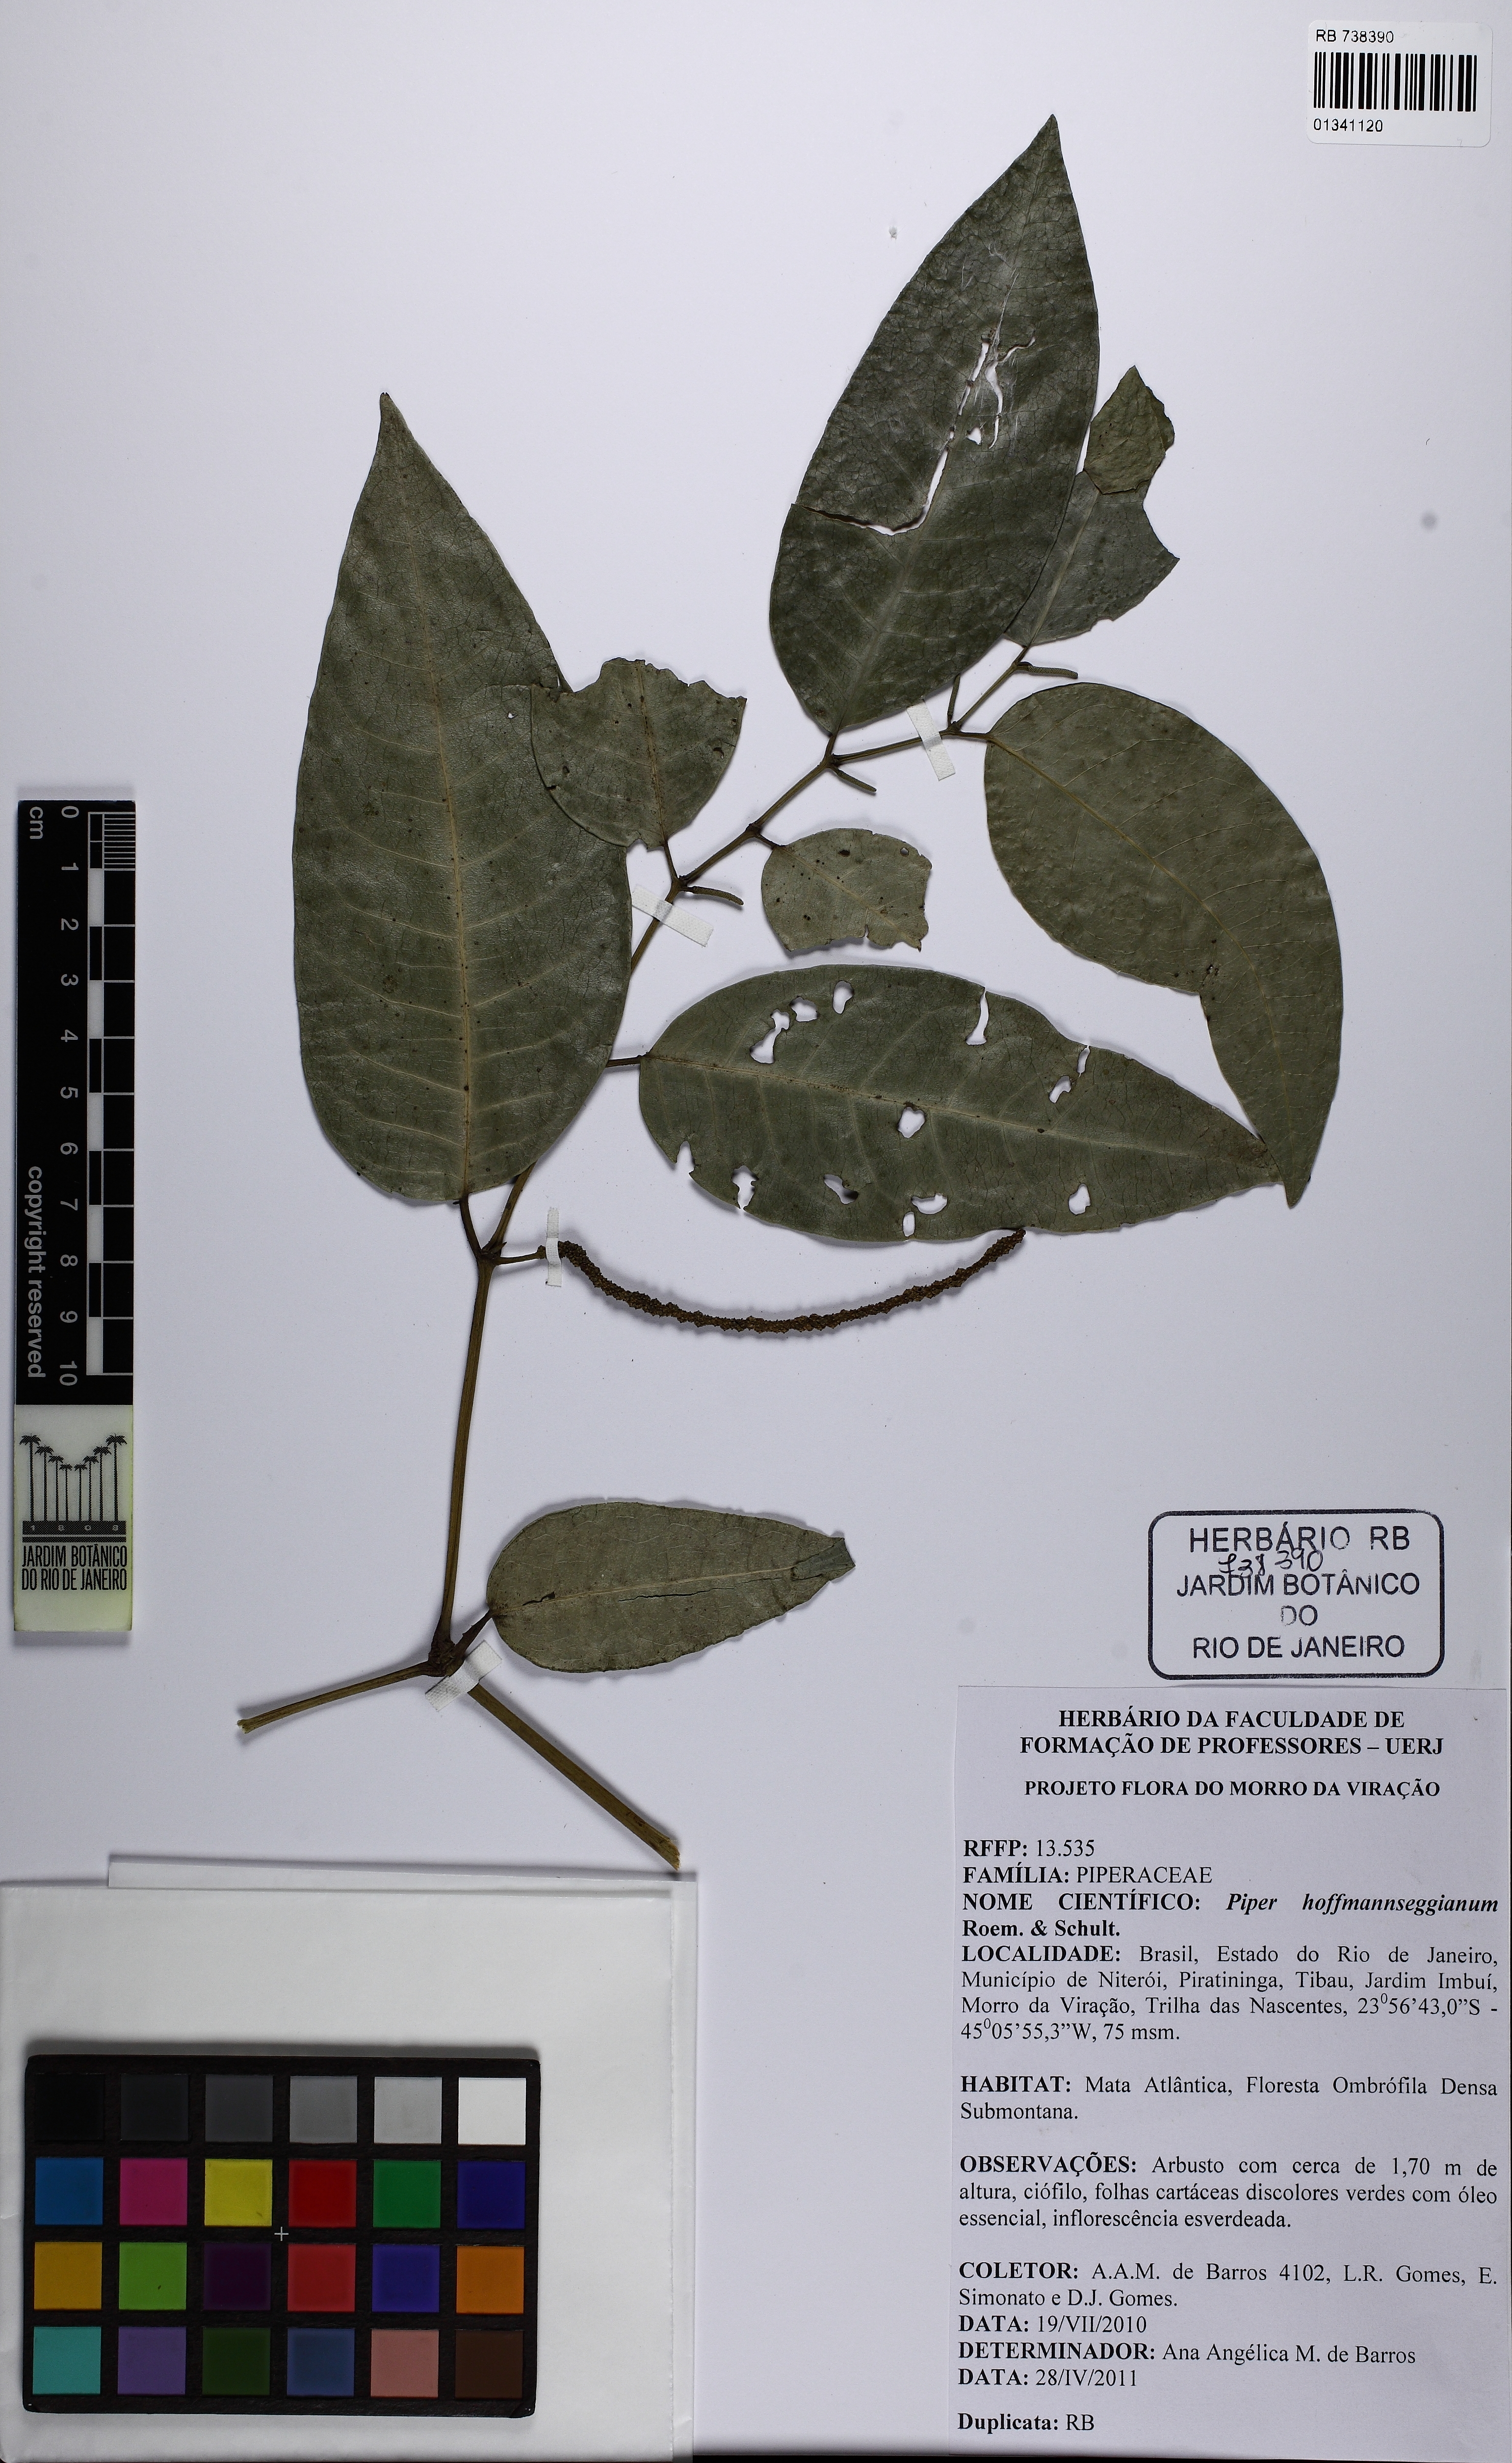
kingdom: Plantae
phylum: Tracheophyta
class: Magnoliopsida
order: Piperales
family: Piperaceae
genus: Piper
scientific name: Piper hoffmannseggianum
